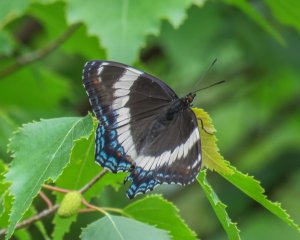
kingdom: Animalia
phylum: Arthropoda
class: Insecta
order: Lepidoptera
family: Nymphalidae
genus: Limenitis
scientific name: Limenitis arthemis
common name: Red-spotted Admiral
